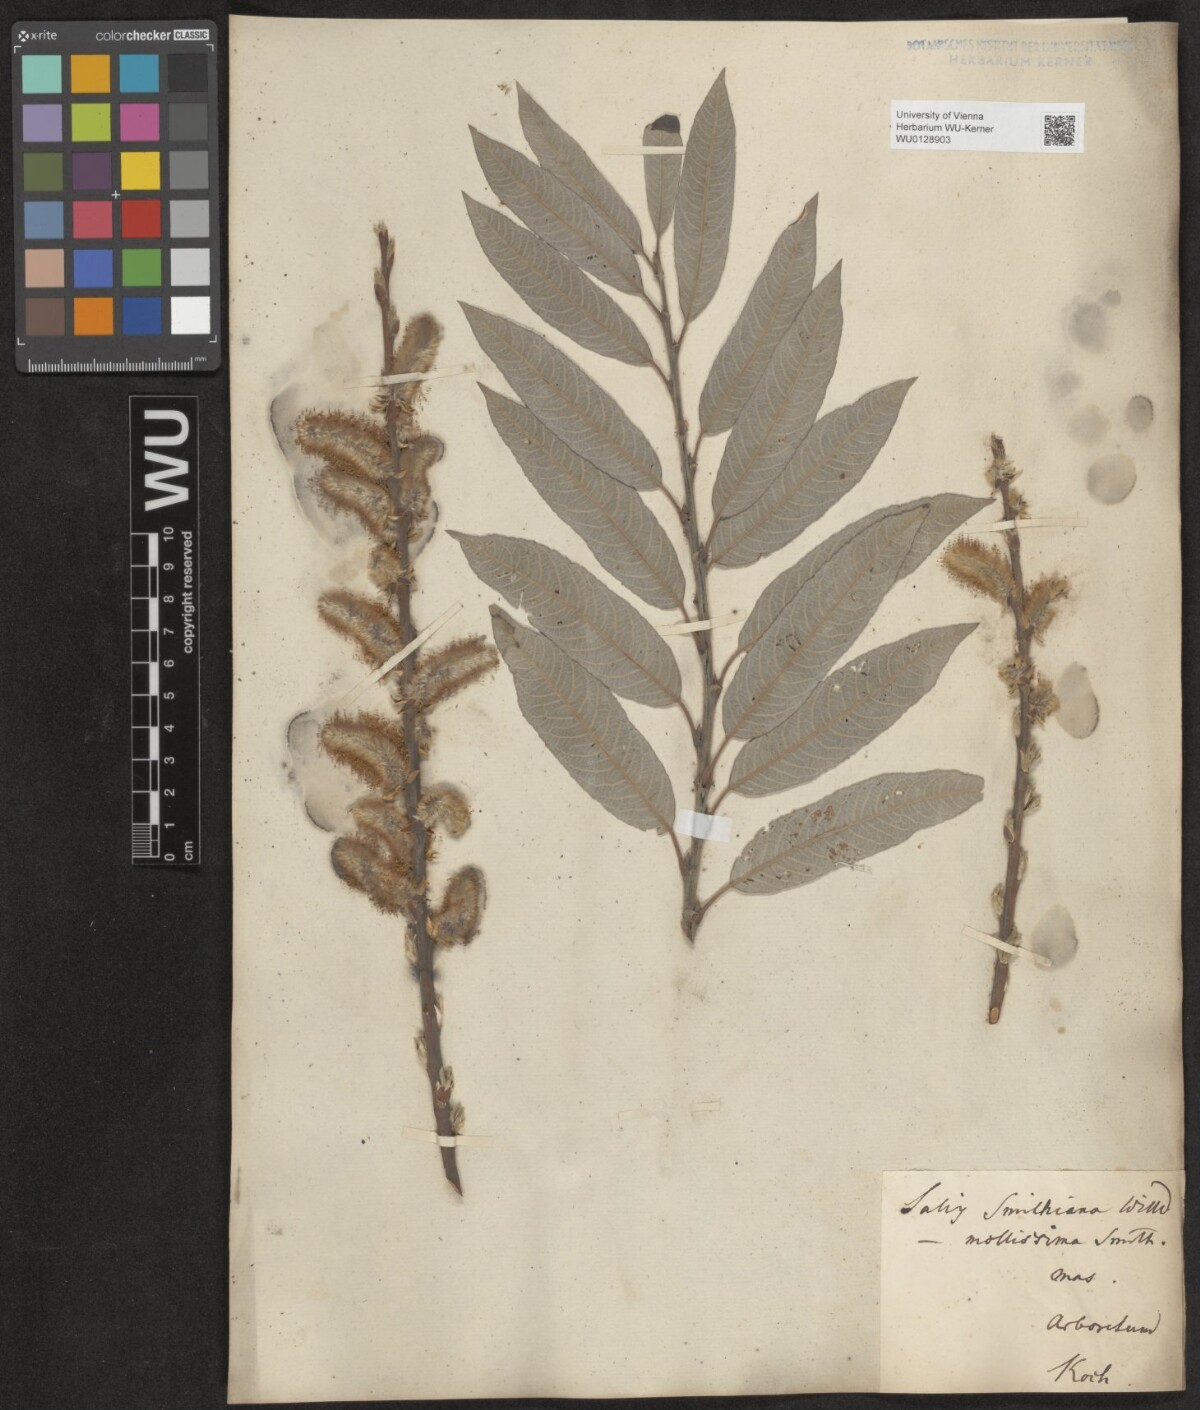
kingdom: Plantae
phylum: Tracheophyta
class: Magnoliopsida
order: Malpighiales
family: Salicaceae
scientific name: Salicaceae
